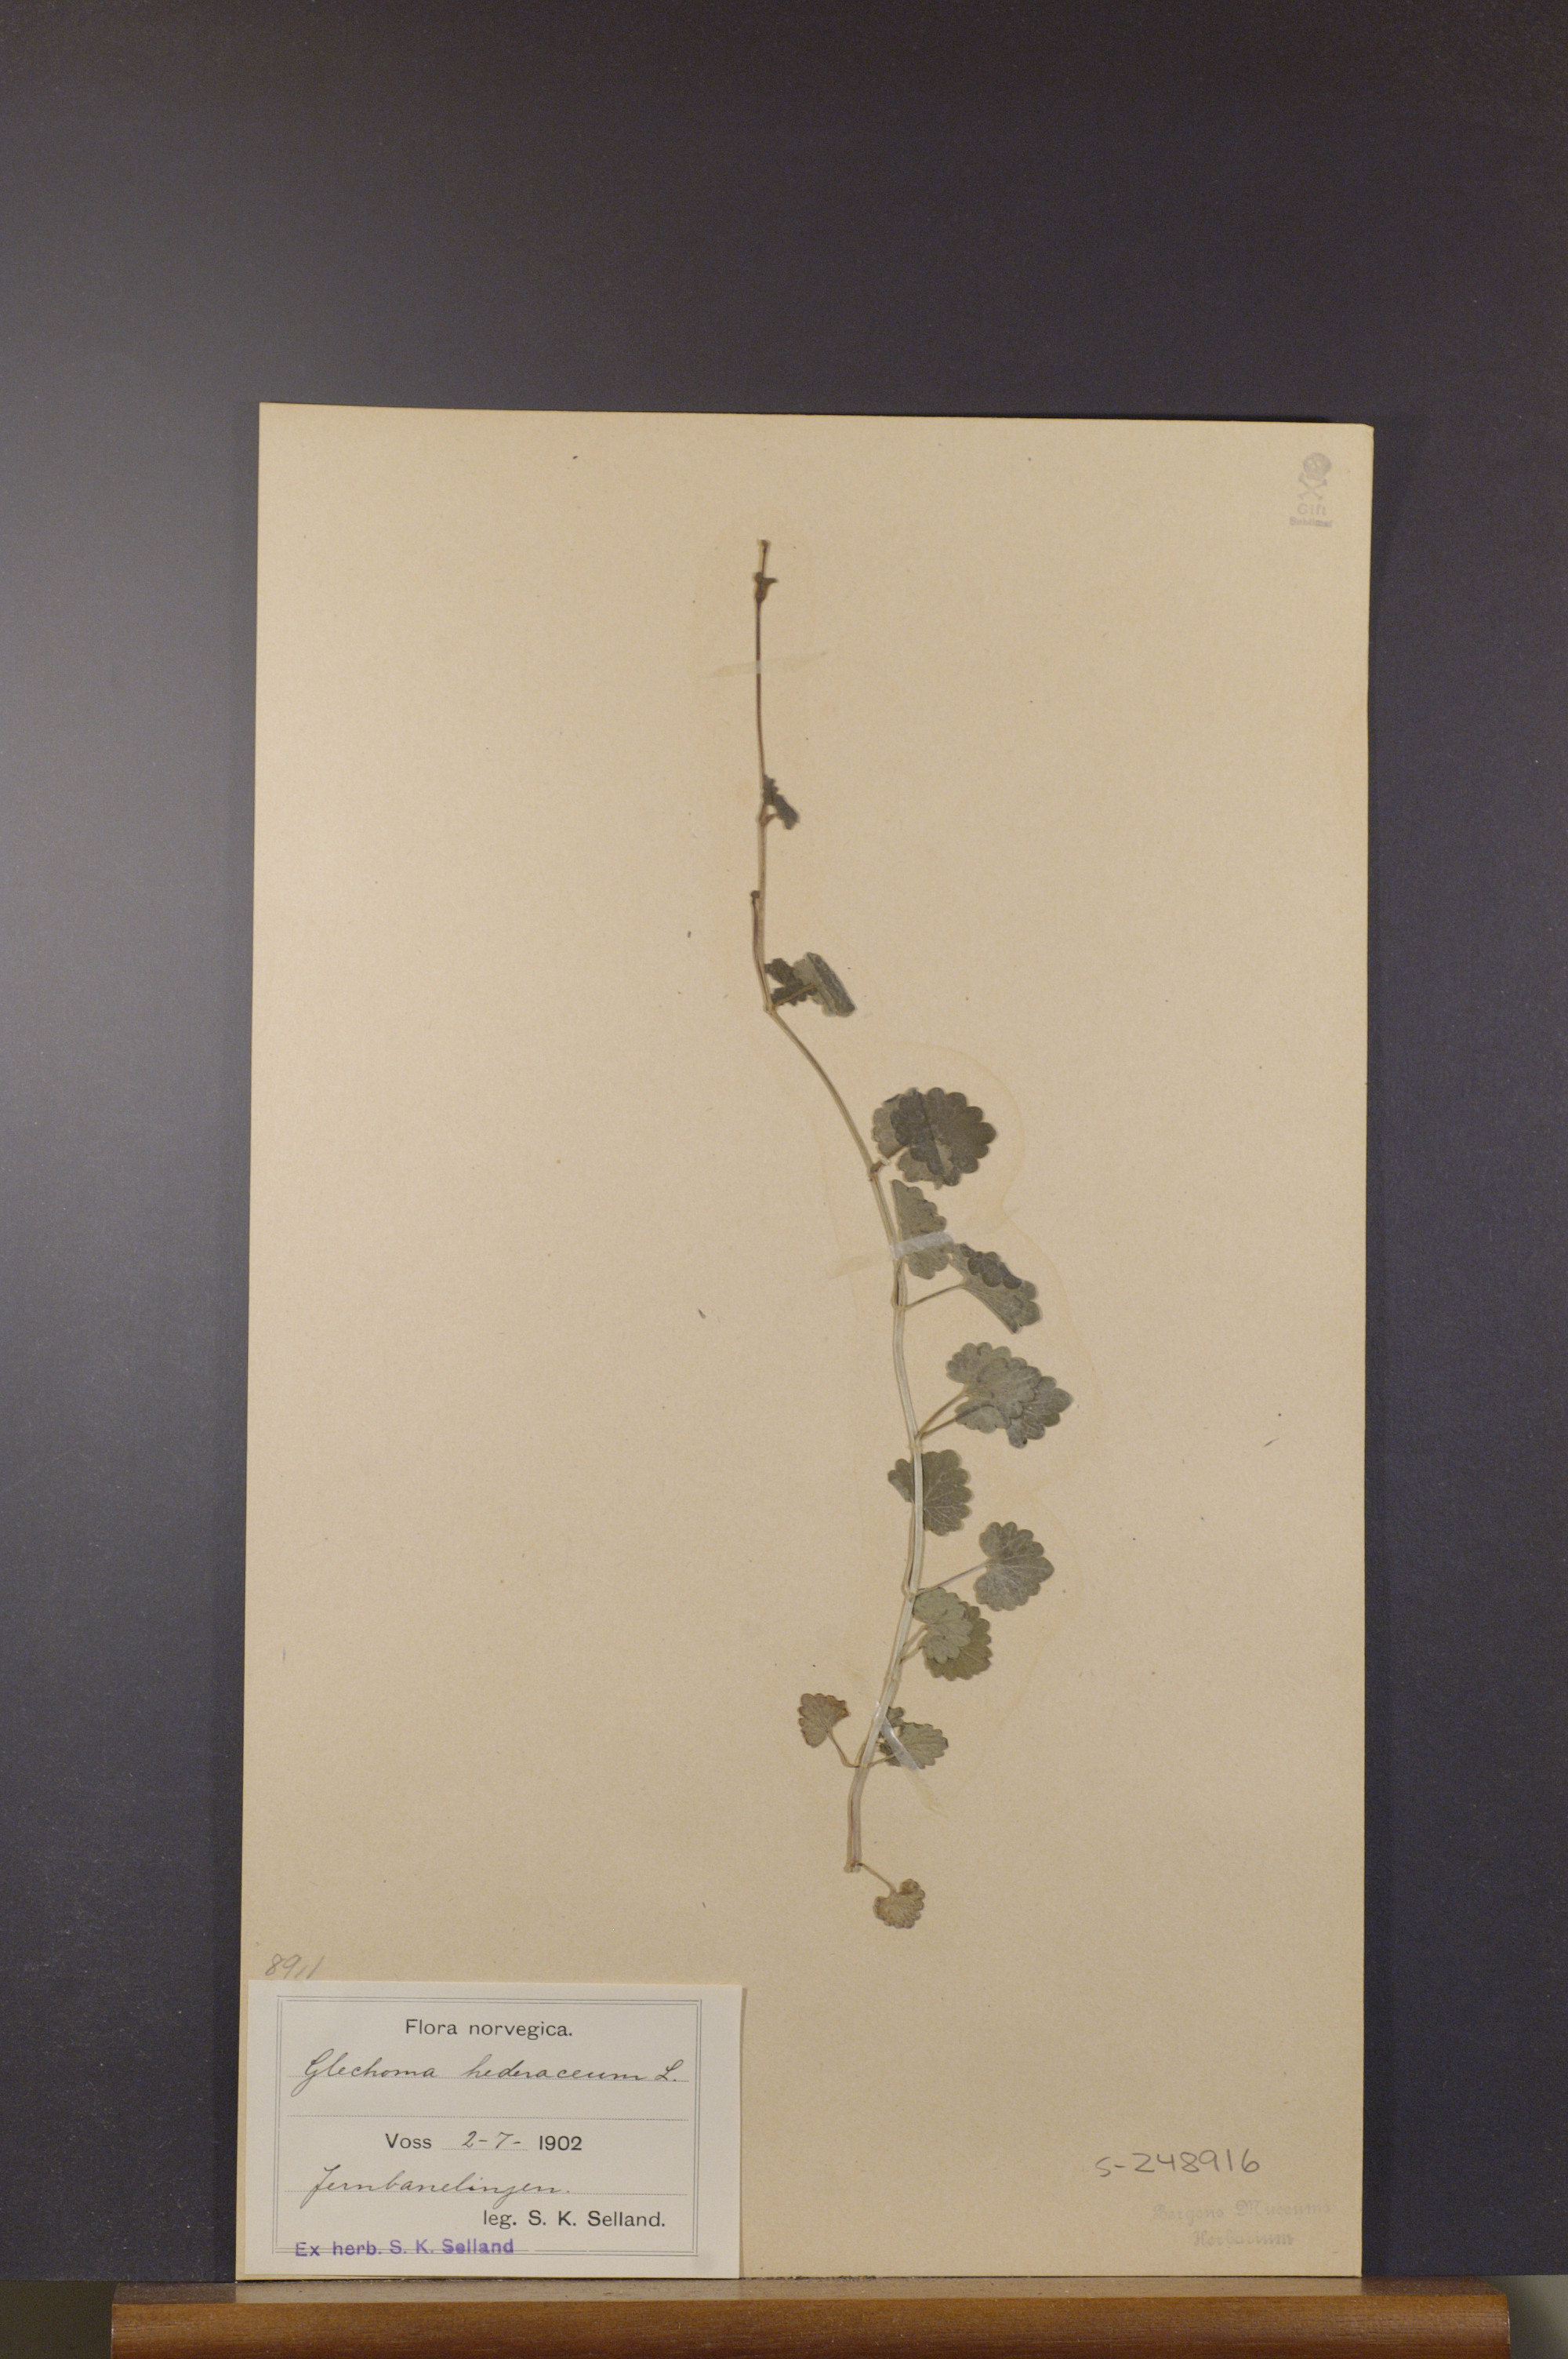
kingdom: Plantae
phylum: Tracheophyta
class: Magnoliopsida
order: Lamiales
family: Lamiaceae
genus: Glechoma
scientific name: Glechoma hederacea
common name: Ground ivy
